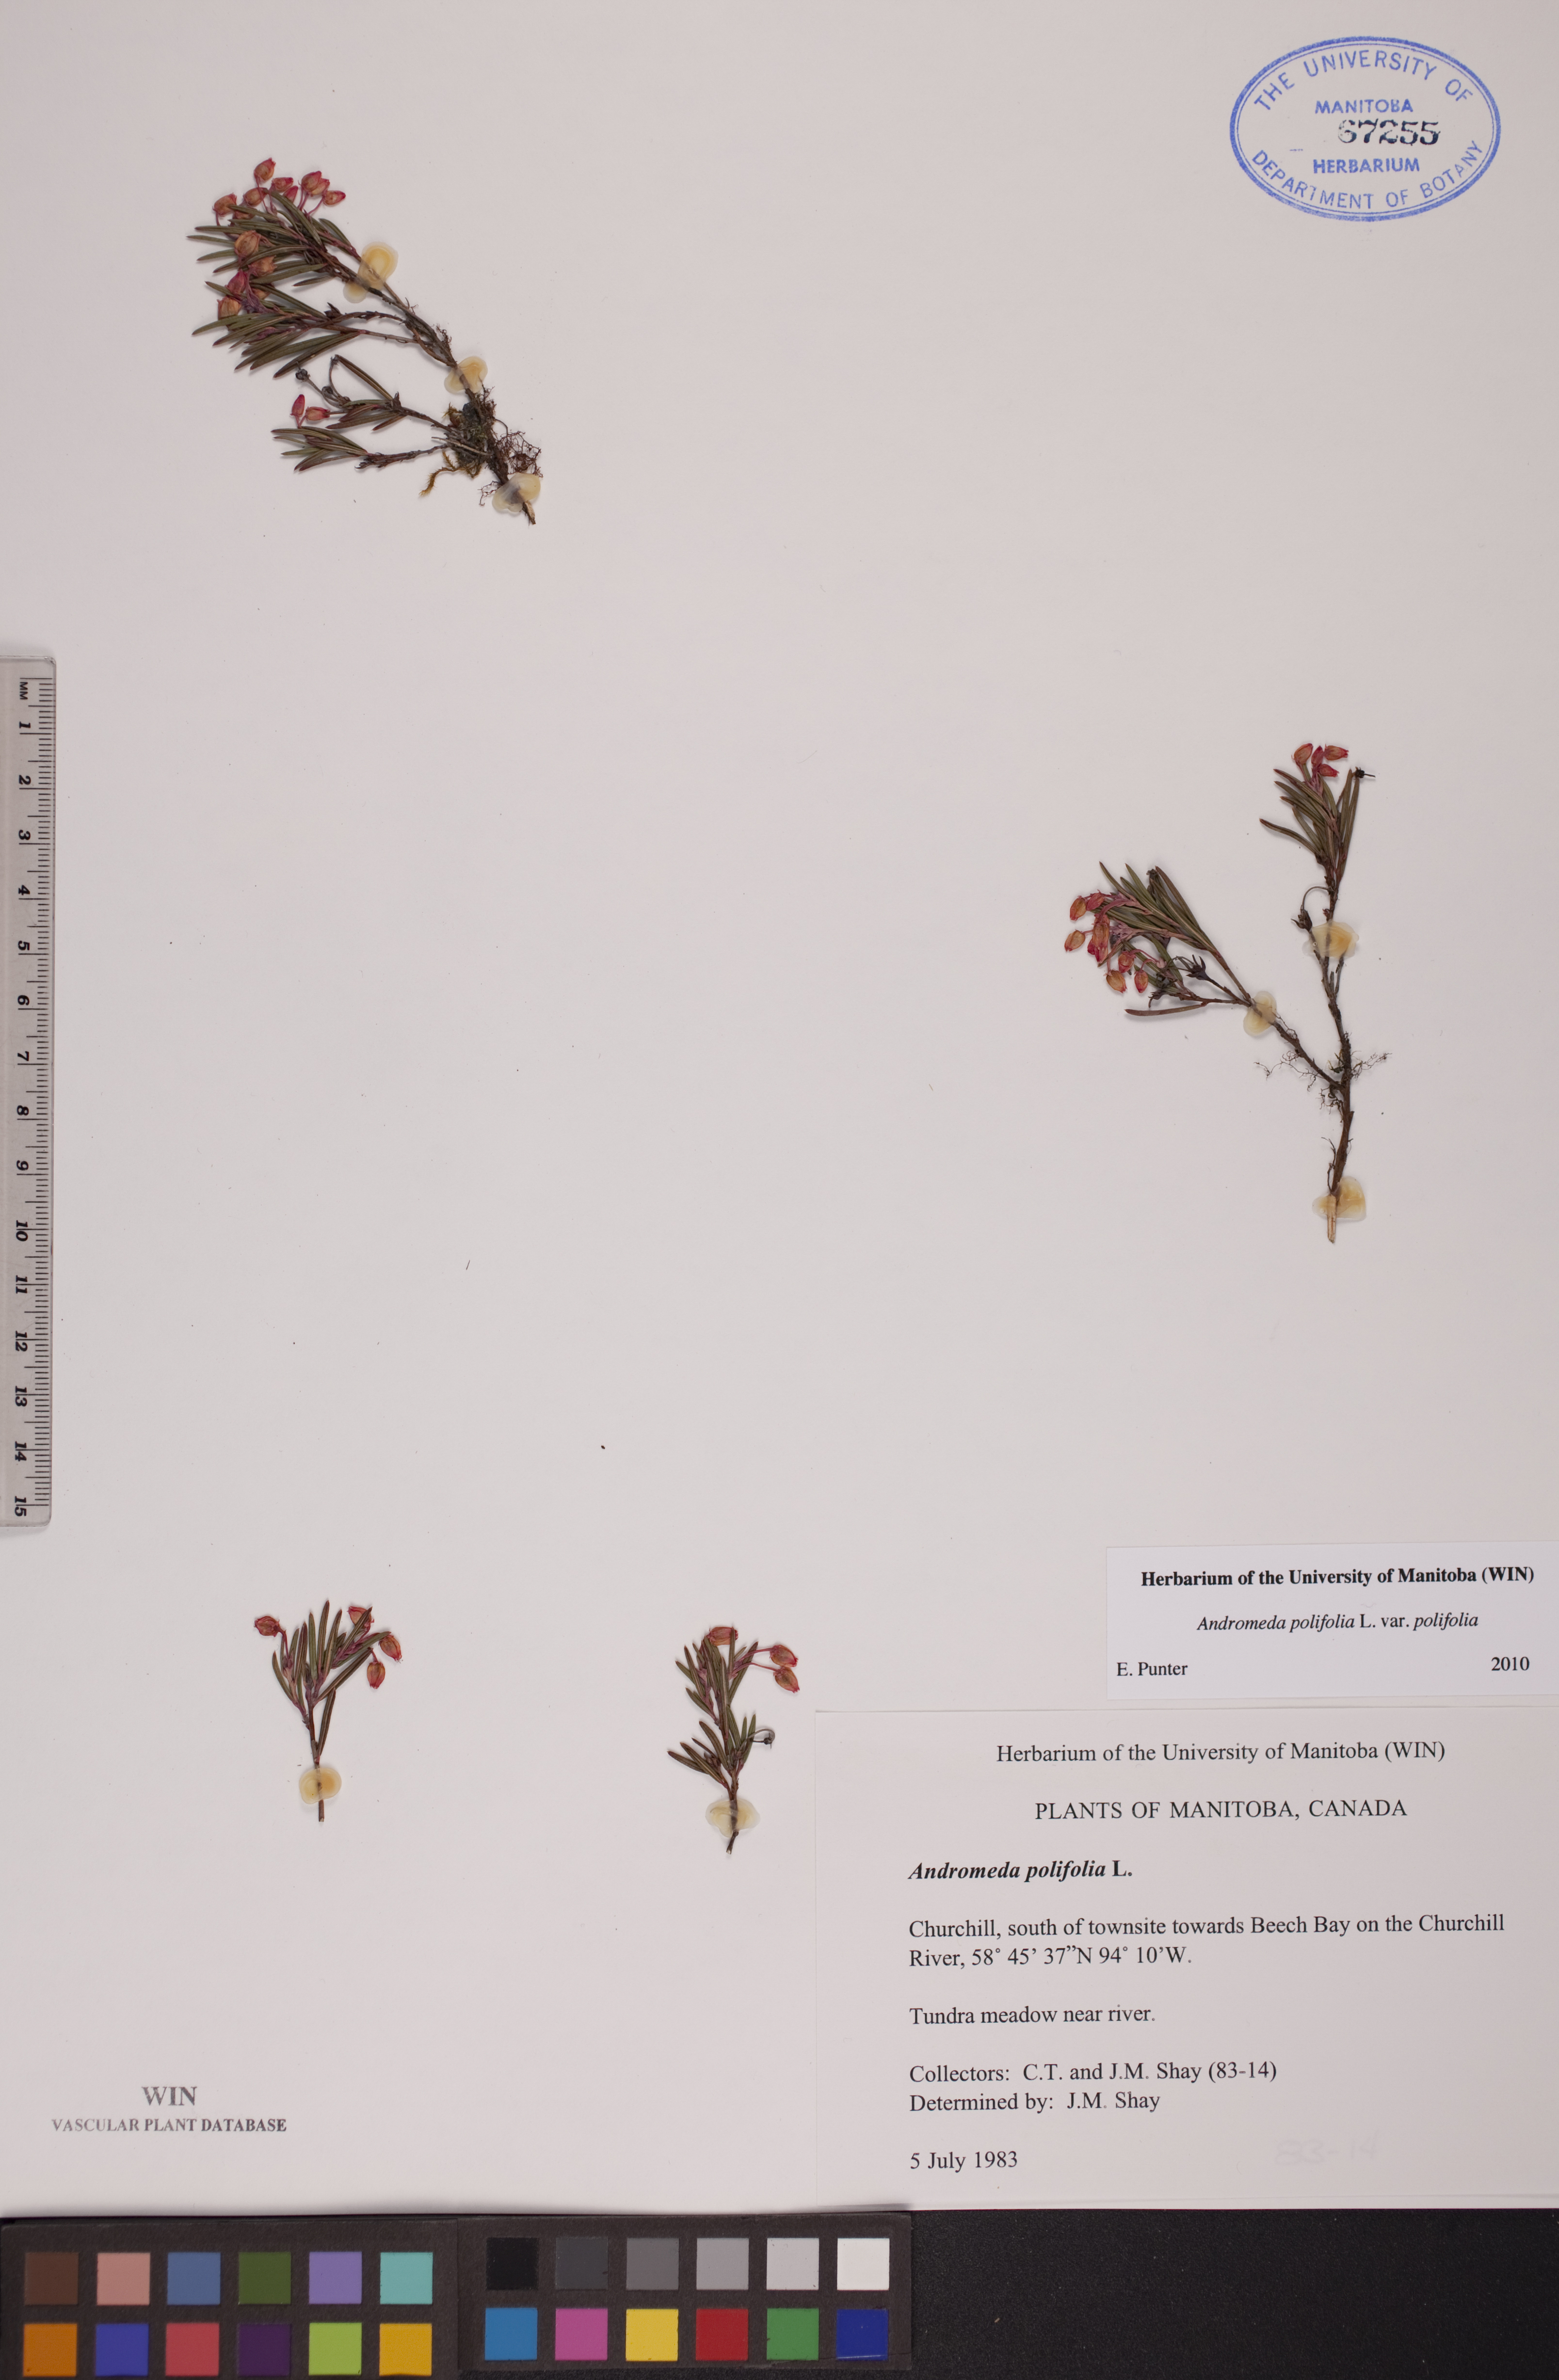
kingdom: Plantae
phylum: Tracheophyta
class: Magnoliopsida
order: Ericales
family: Ericaceae
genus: Andromeda
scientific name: Andromeda polifolia
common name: Bog-rosemary
